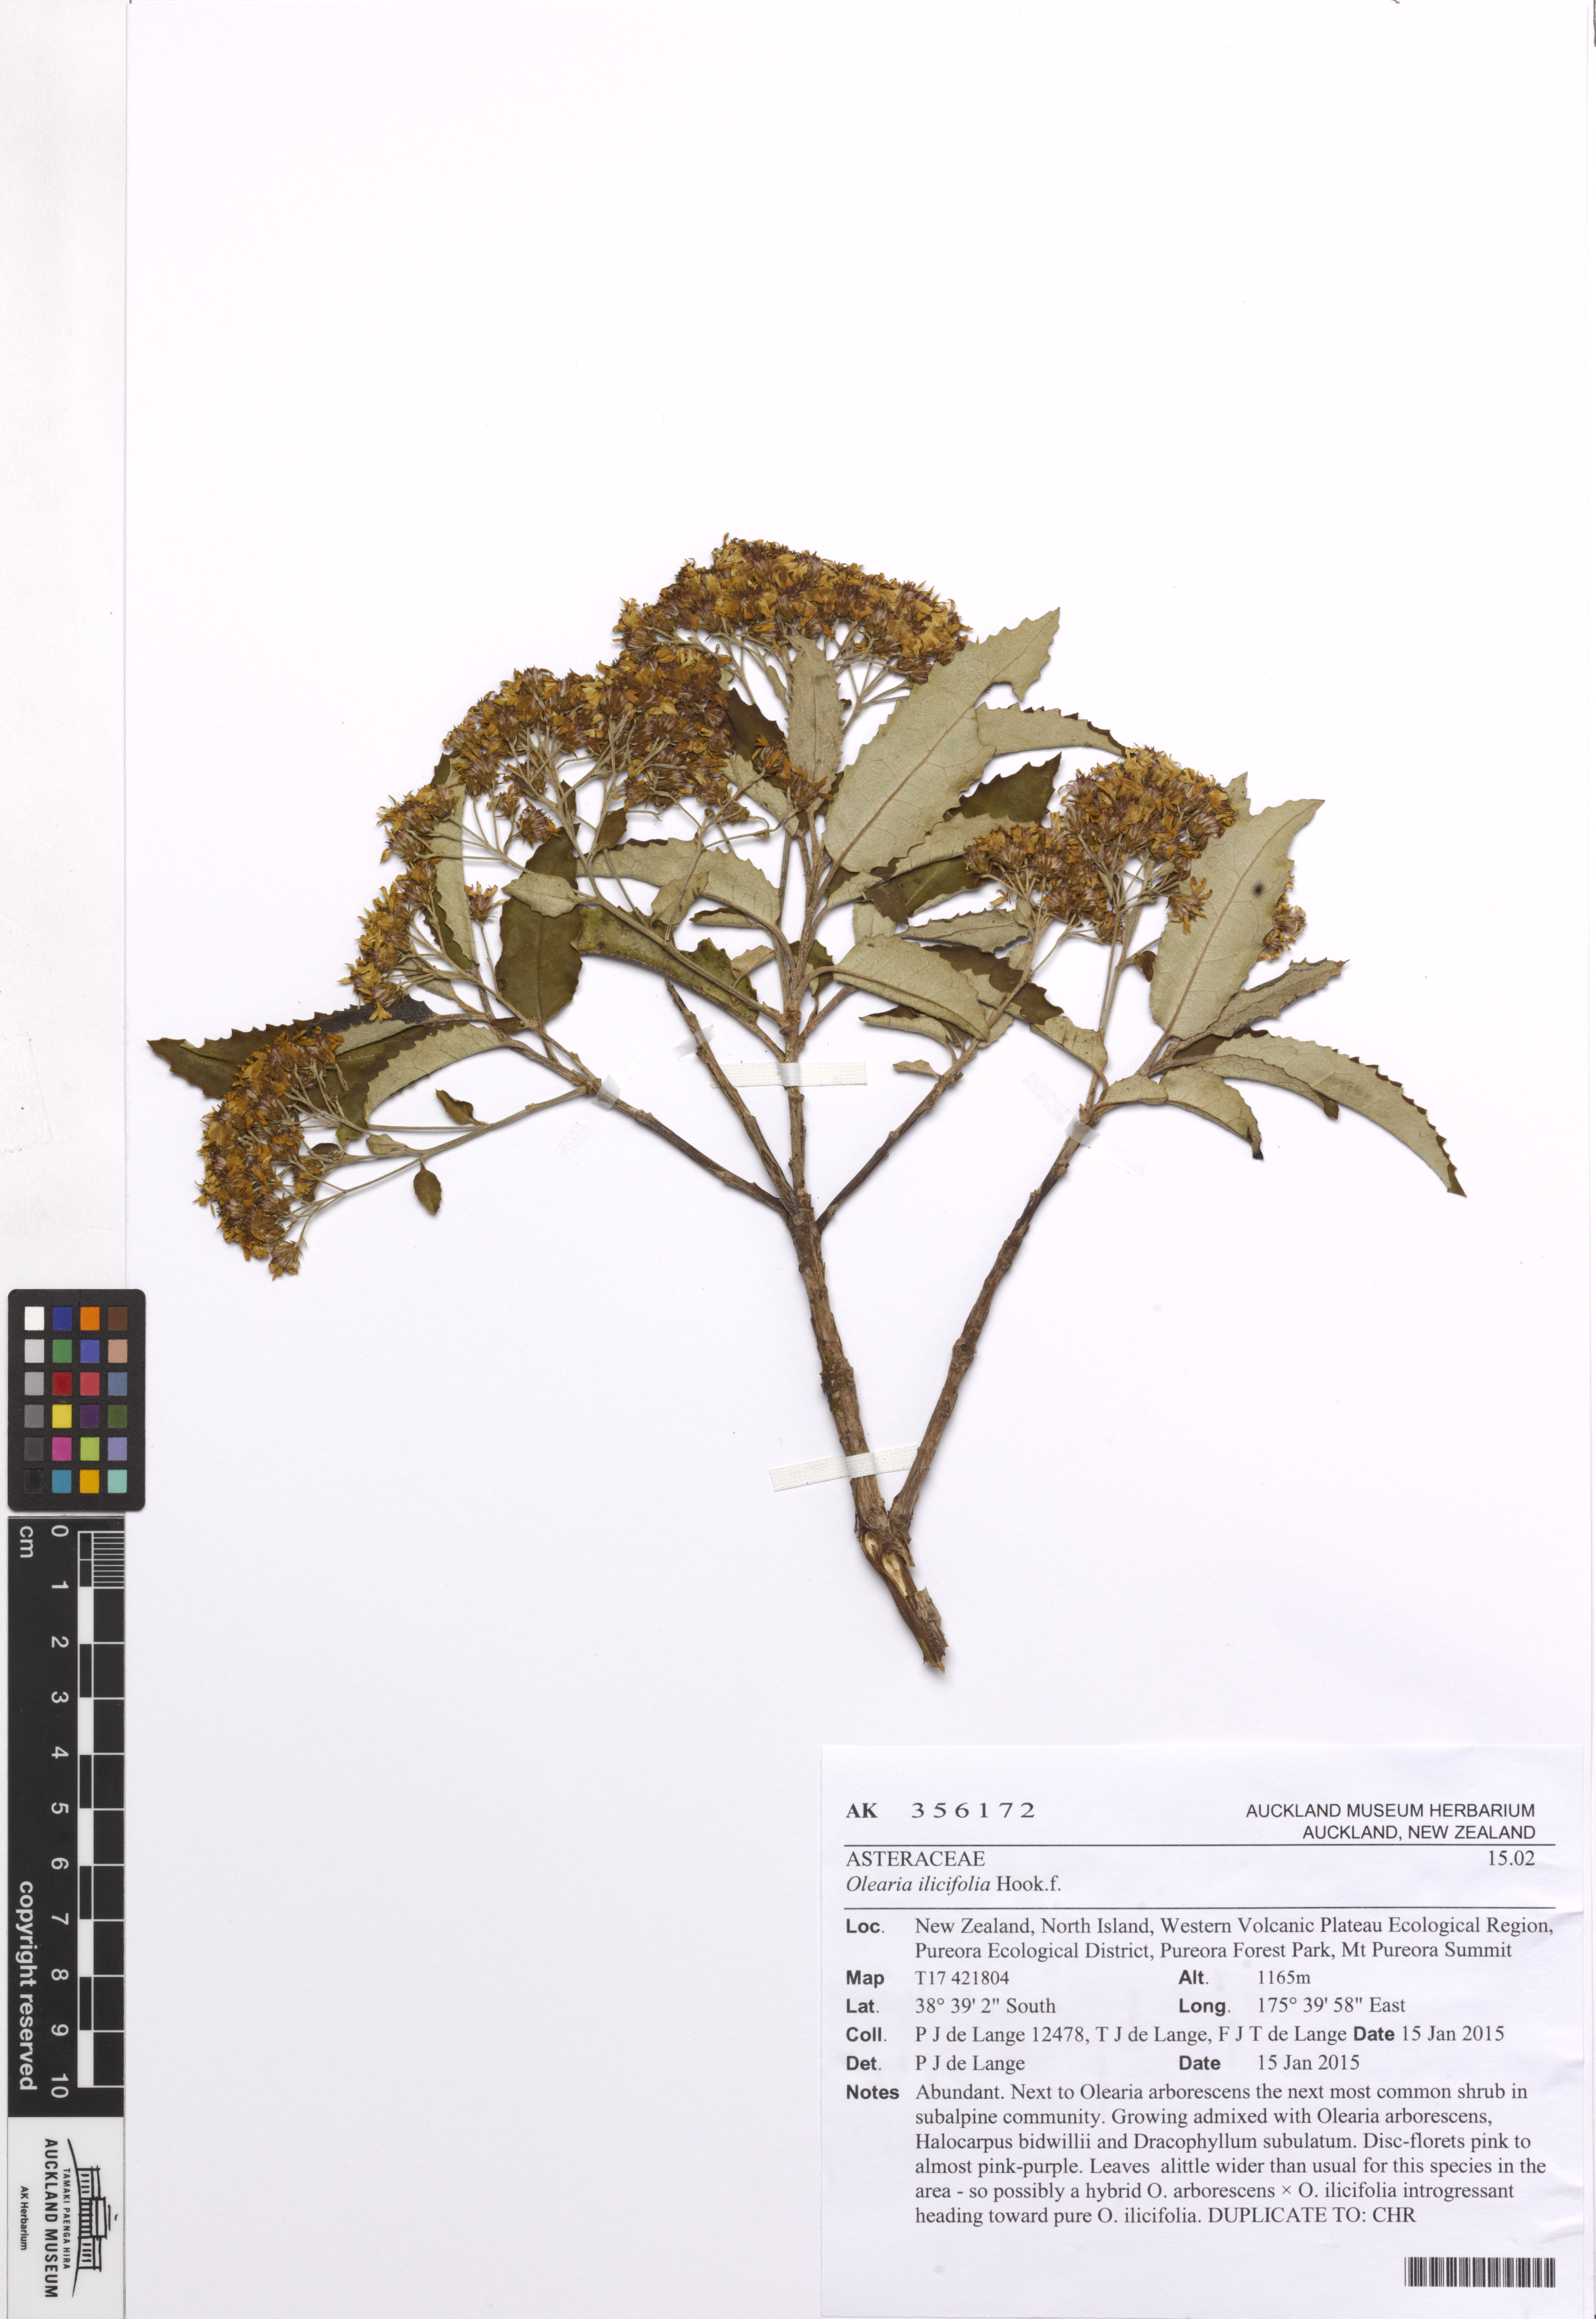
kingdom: Plantae
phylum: Tracheophyta
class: Magnoliopsida
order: Asterales
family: Asteraceae
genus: Olearia
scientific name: Olearia ilicifolia
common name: Maori-holly
